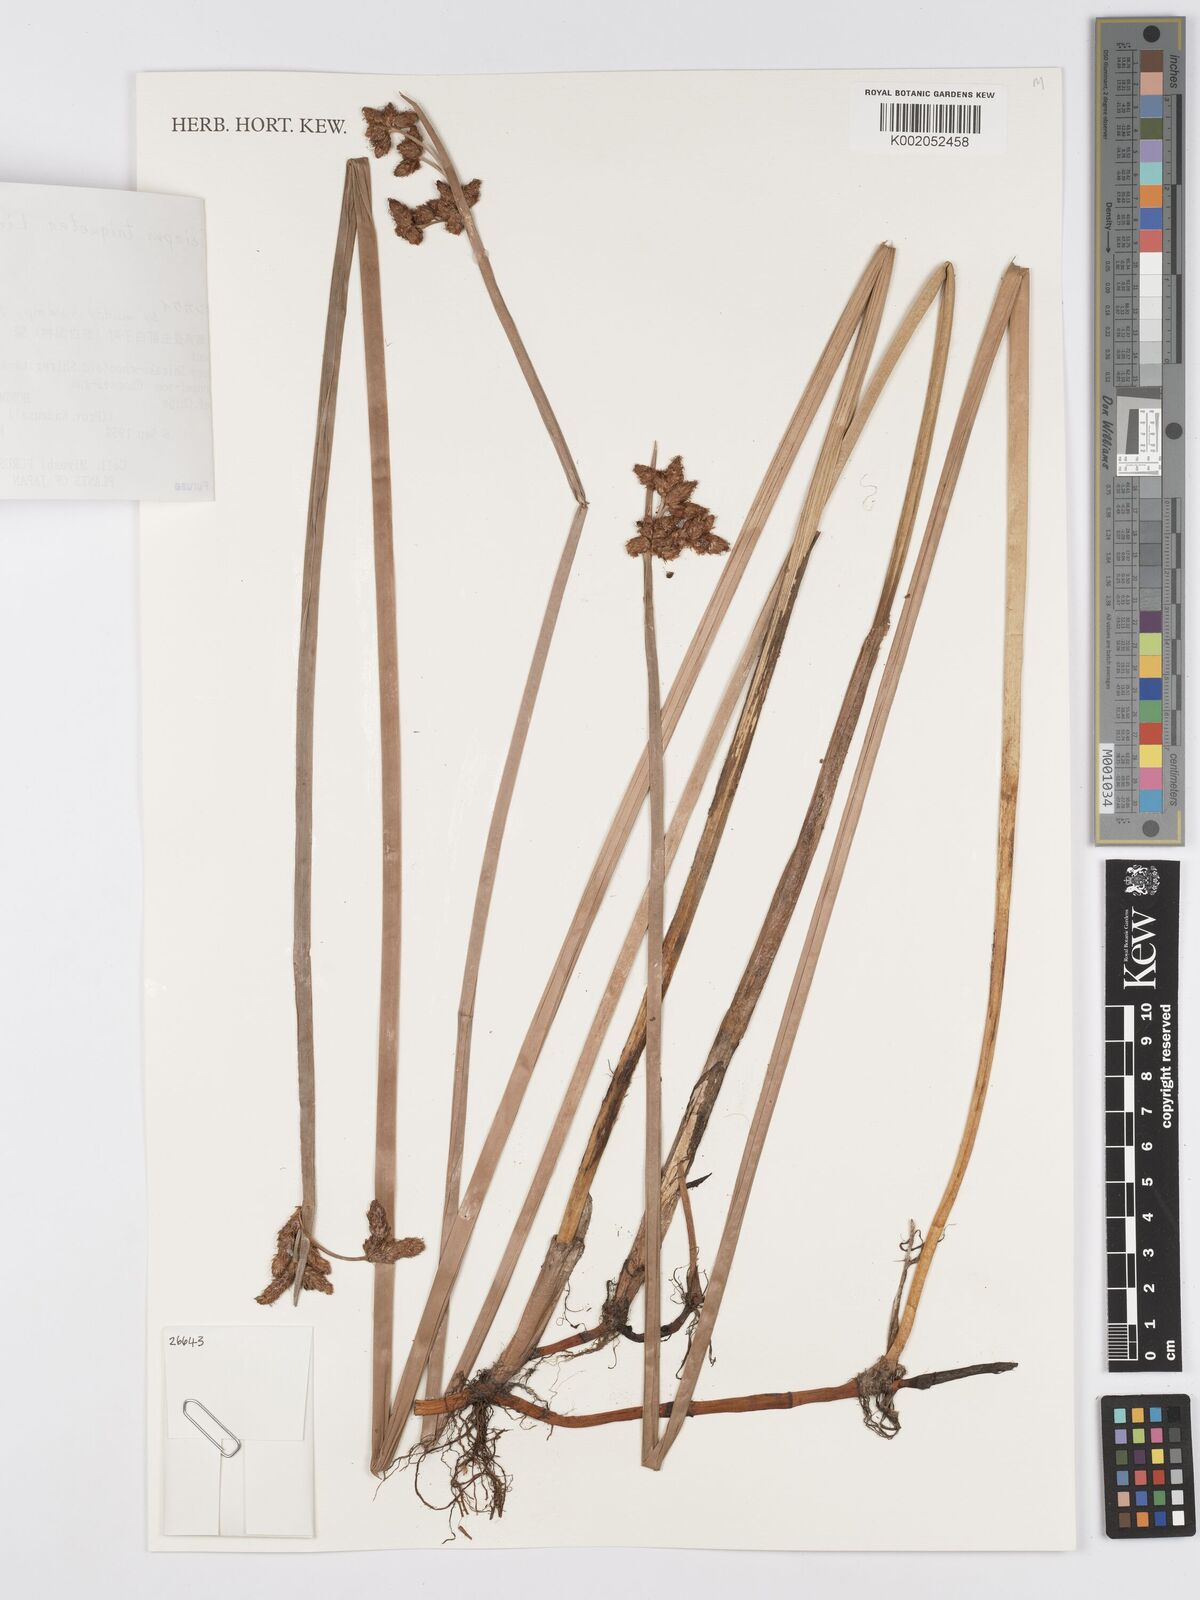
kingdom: Plantae
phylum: Tracheophyta
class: Liliopsida
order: Poales
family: Cyperaceae
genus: Schoenoplectus
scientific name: Schoenoplectus triqueter
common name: Triangular club-rush
